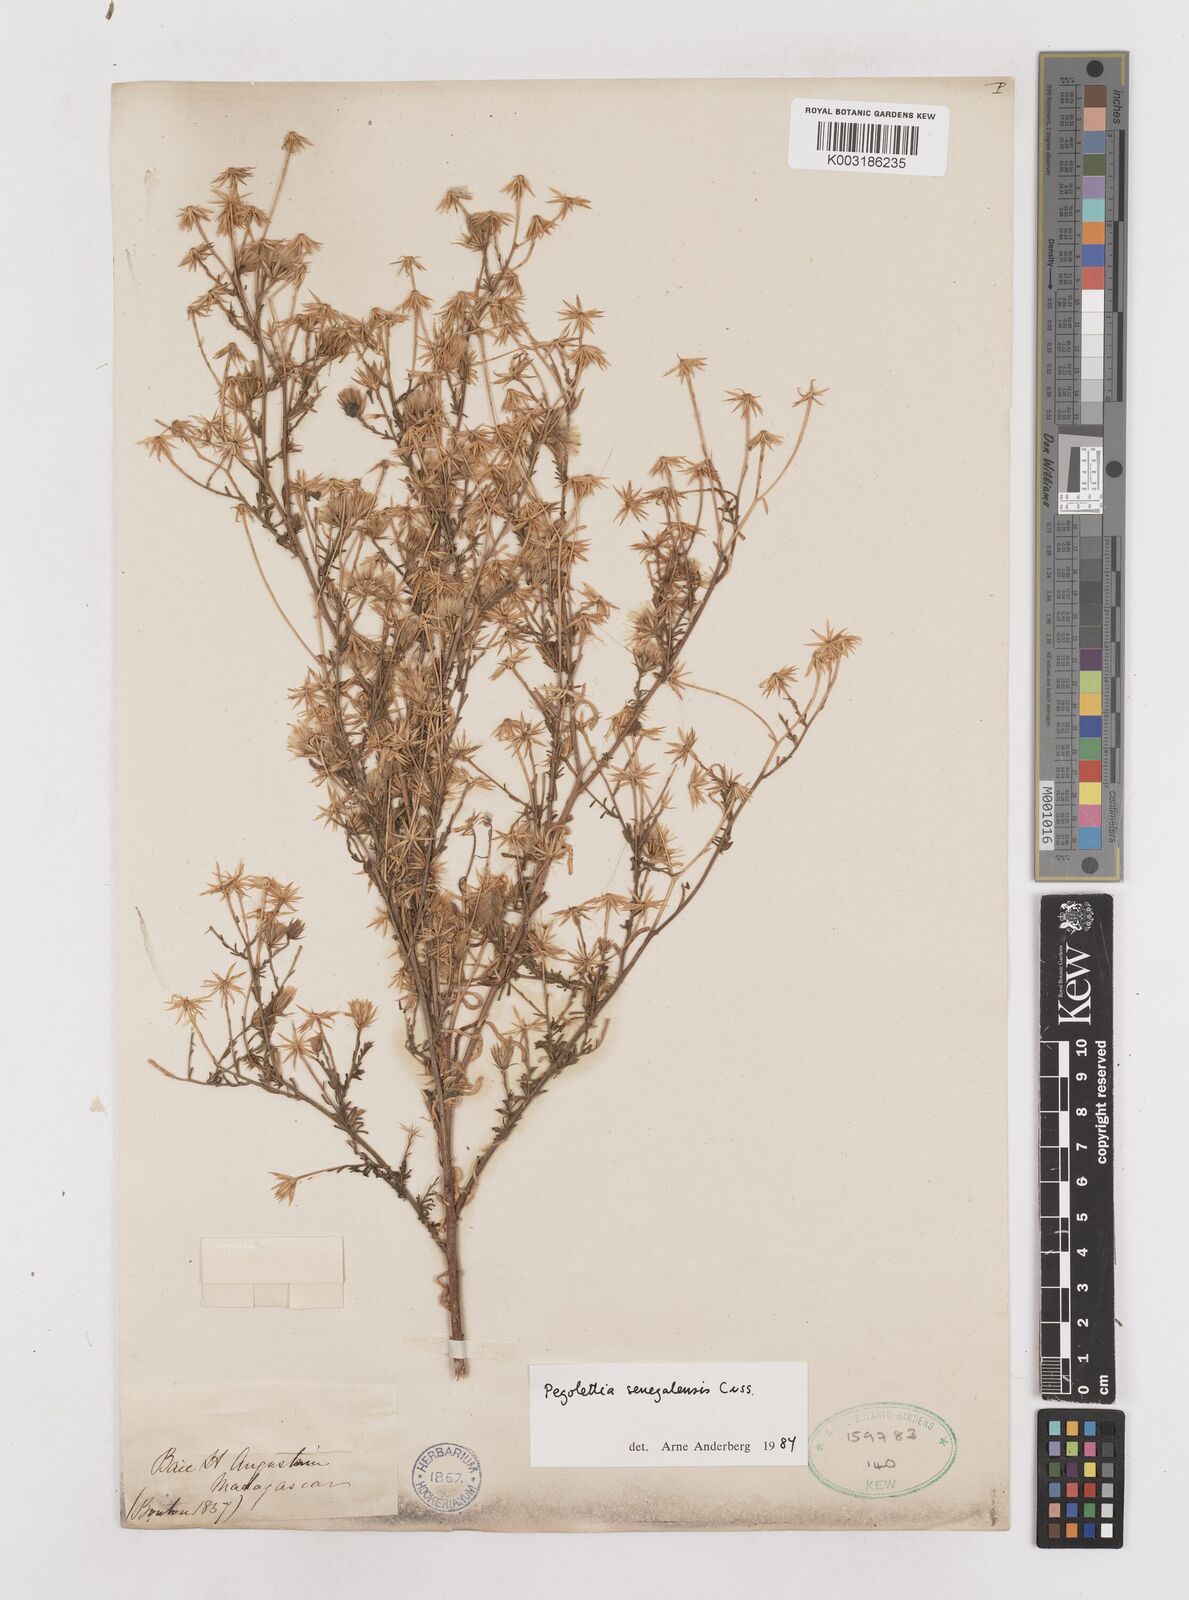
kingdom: Plantae
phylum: Tracheophyta
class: Magnoliopsida
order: Asterales
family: Asteraceae
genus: Pegolettia
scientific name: Pegolettia senegalensis
